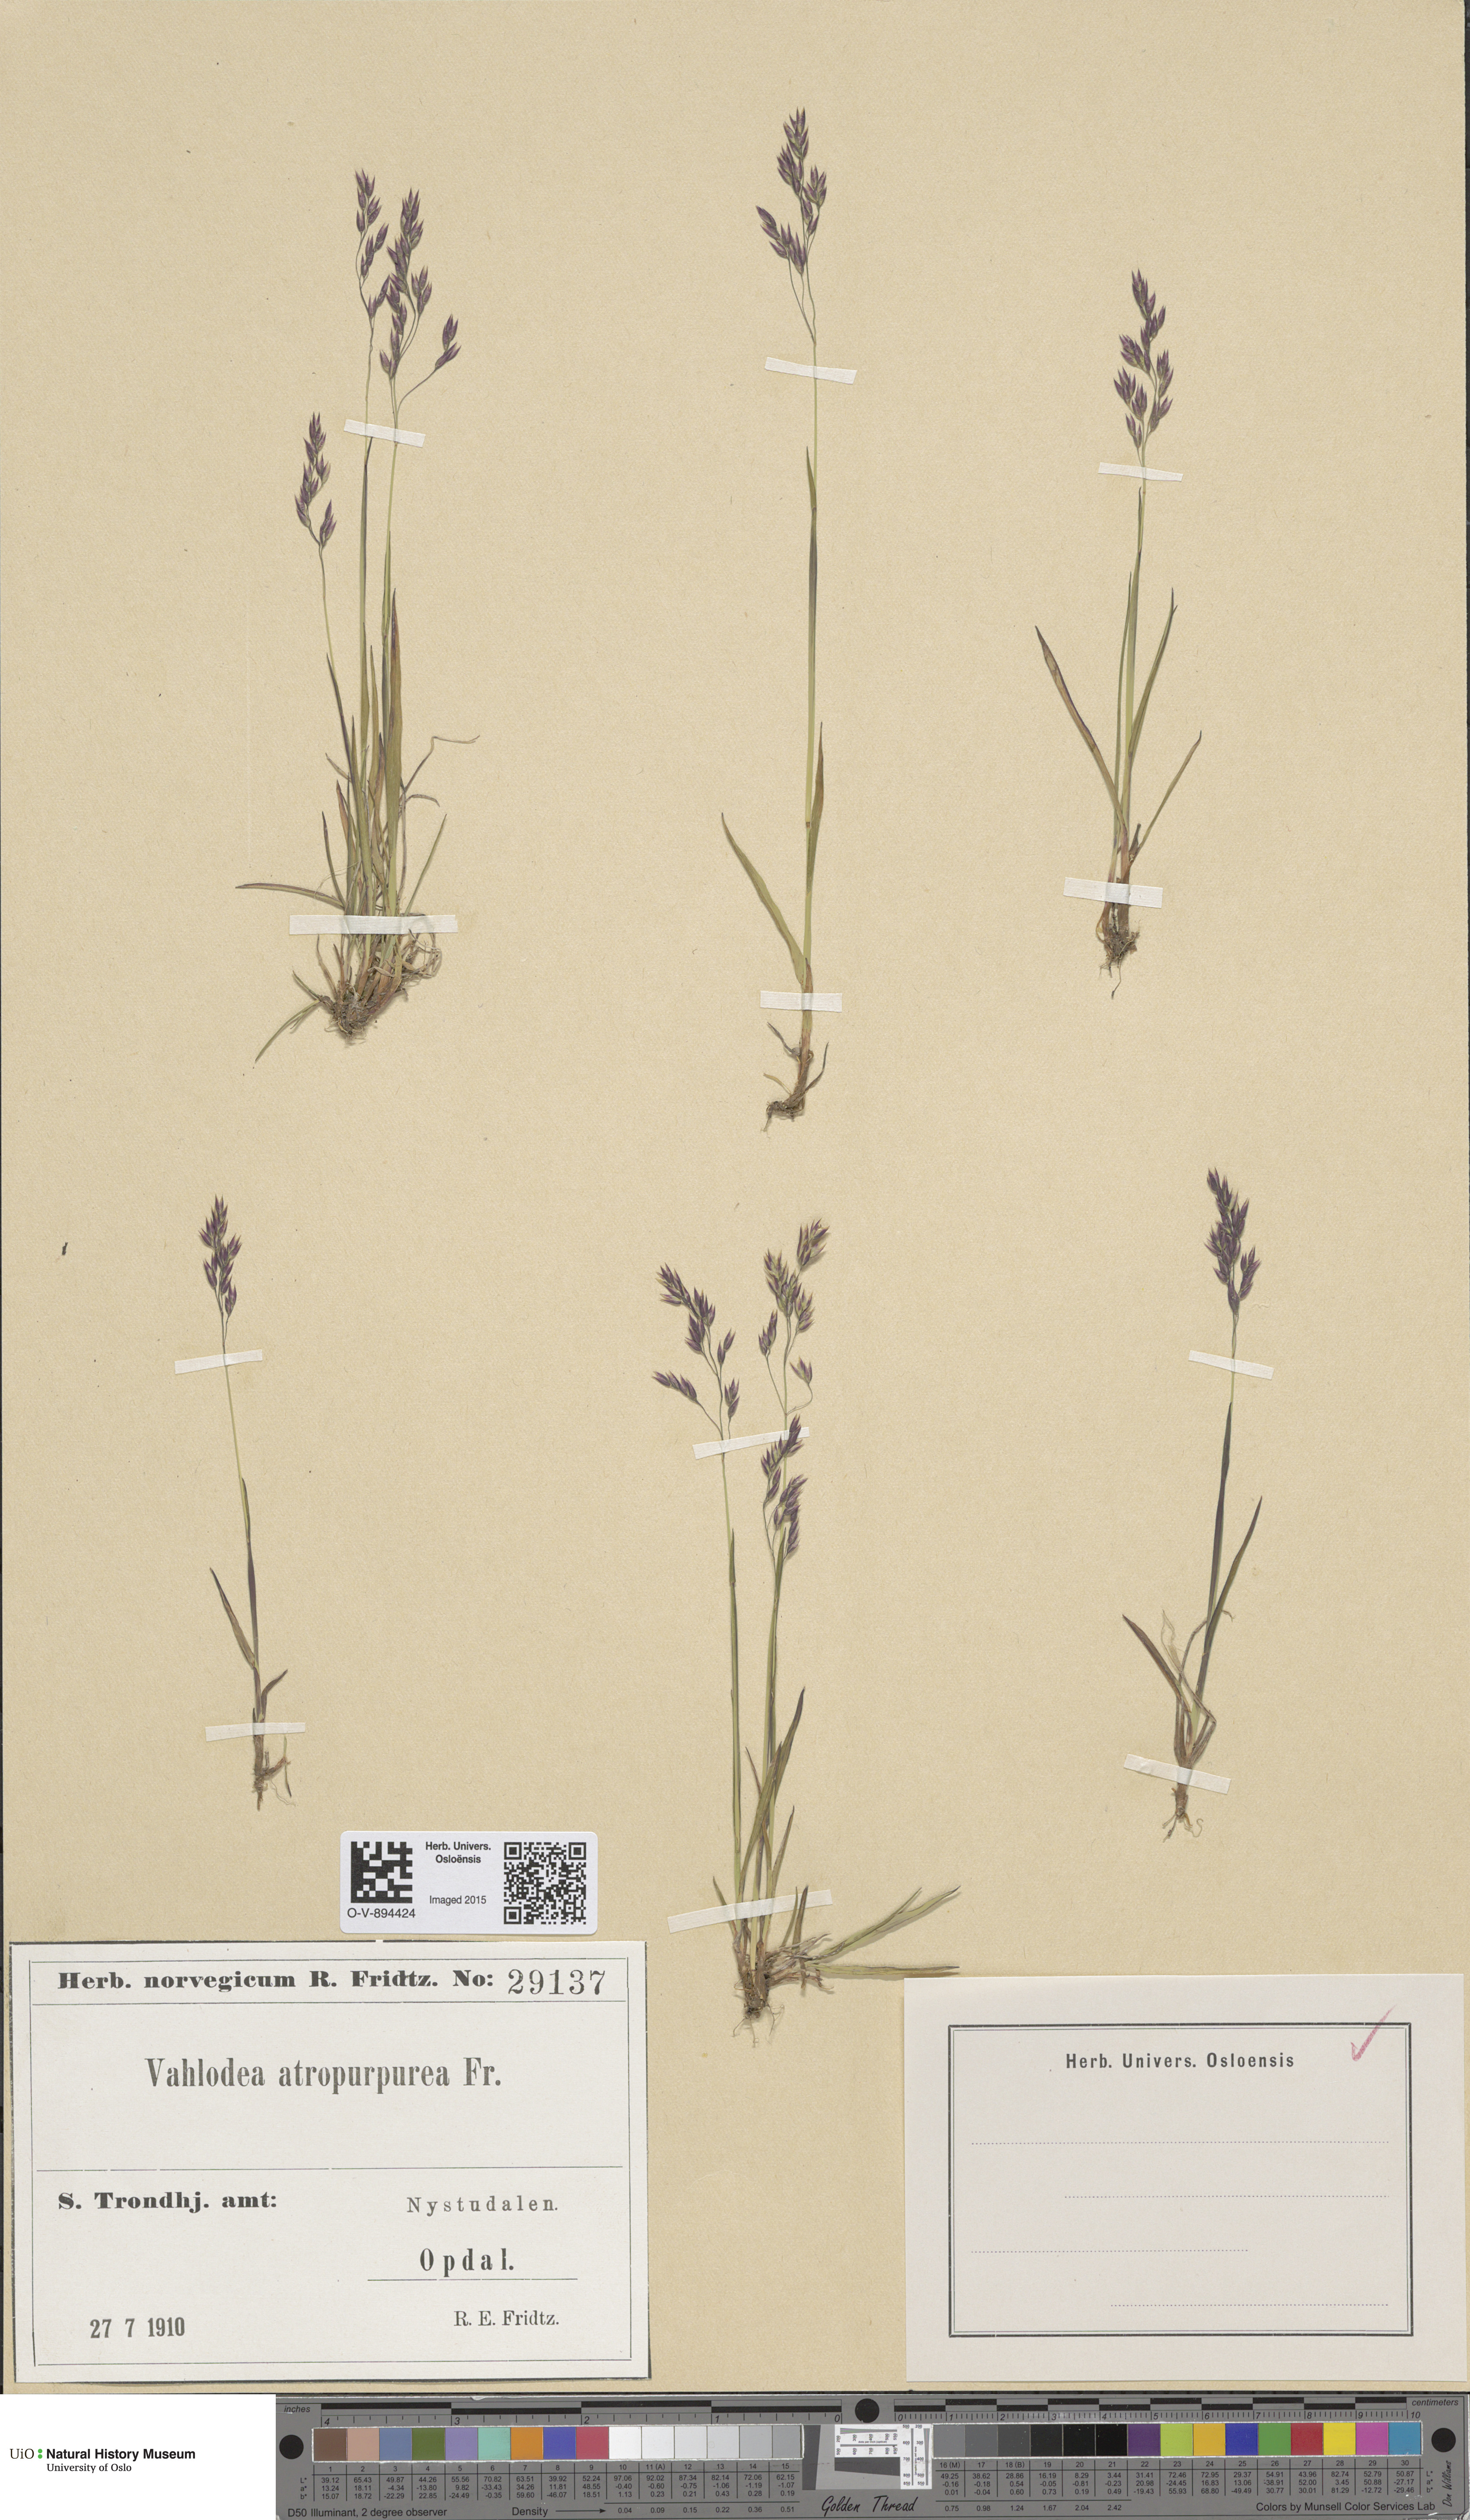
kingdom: Plantae
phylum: Tracheophyta
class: Liliopsida
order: Poales
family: Poaceae
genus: Vahlodea
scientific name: Vahlodea atropurpurea
